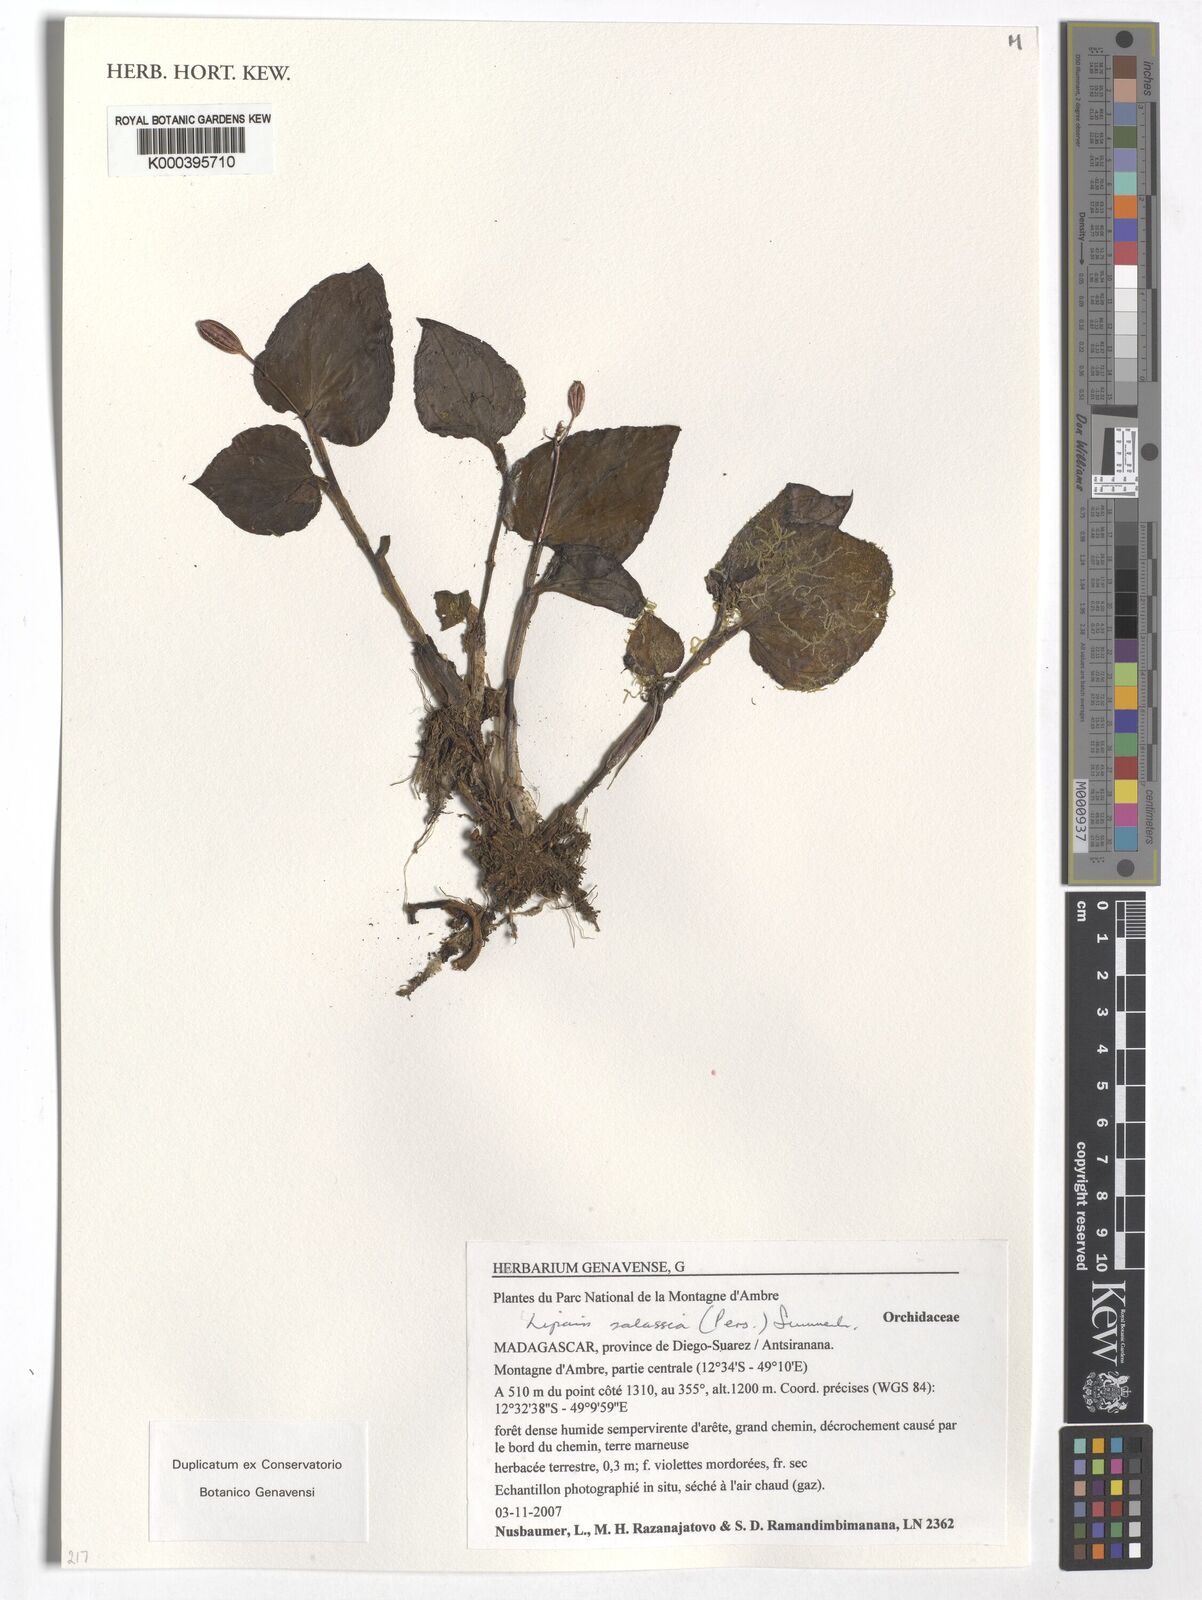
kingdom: Plantae
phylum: Tracheophyta
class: Liliopsida
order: Asparagales
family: Orchidaceae
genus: Liparis
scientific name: Liparis salassia
